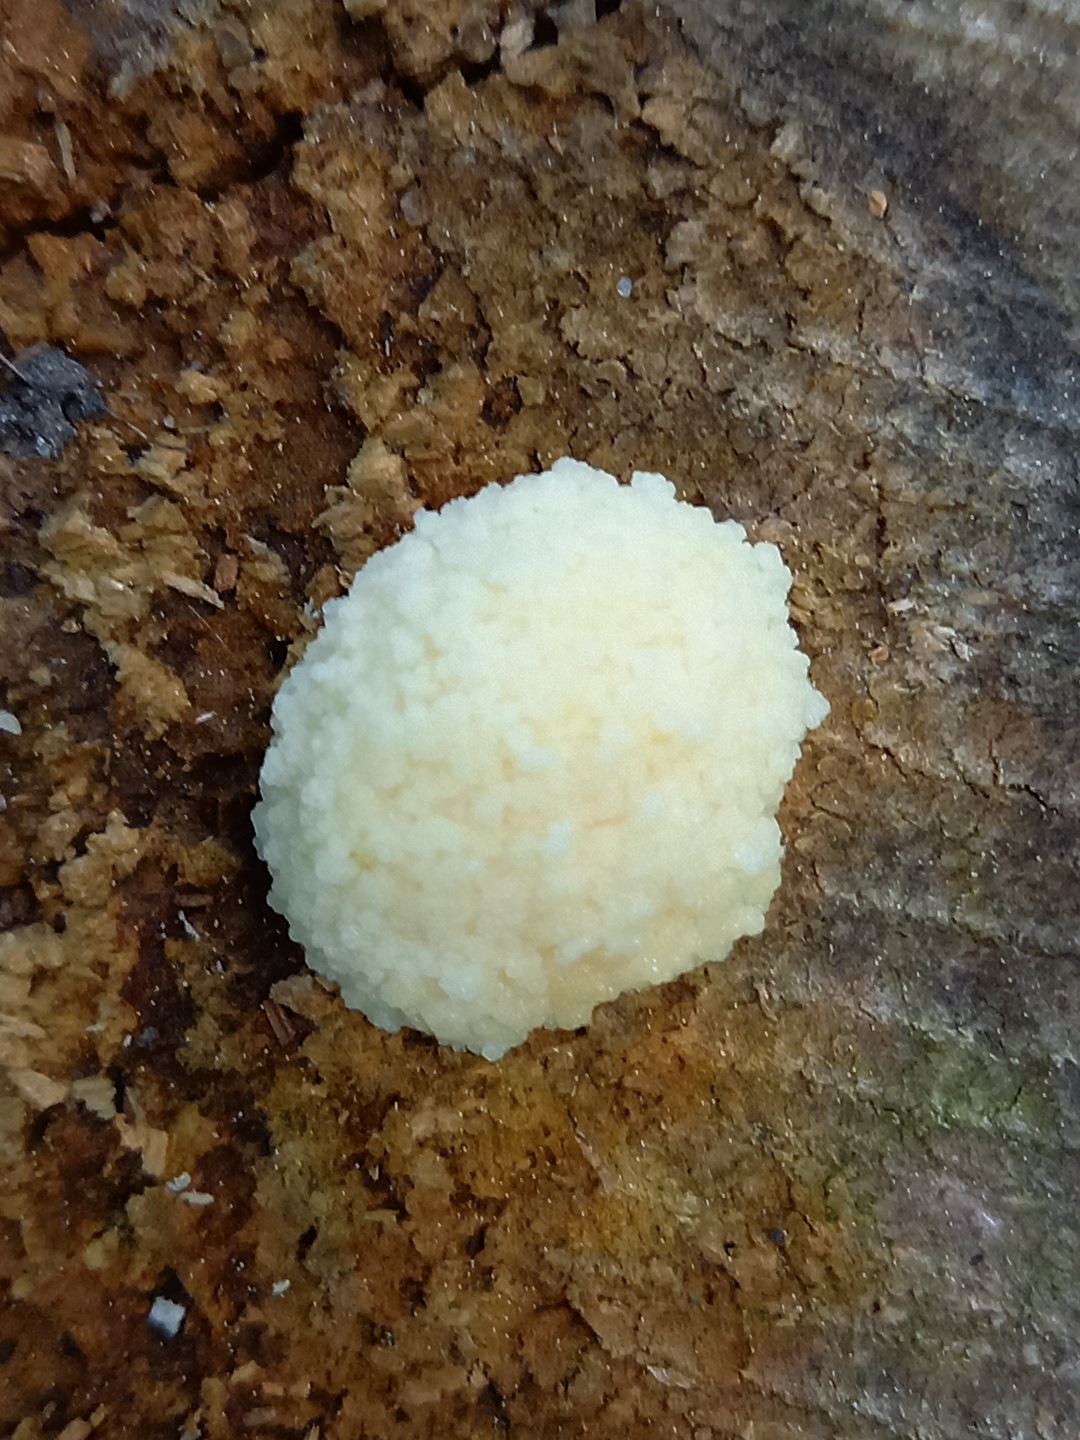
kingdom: Protozoa
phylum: Mycetozoa
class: Myxomycetes
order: Cribrariales
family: Tubiferaceae
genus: Reticularia
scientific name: Reticularia lycoperdon
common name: skinnende støvpude
